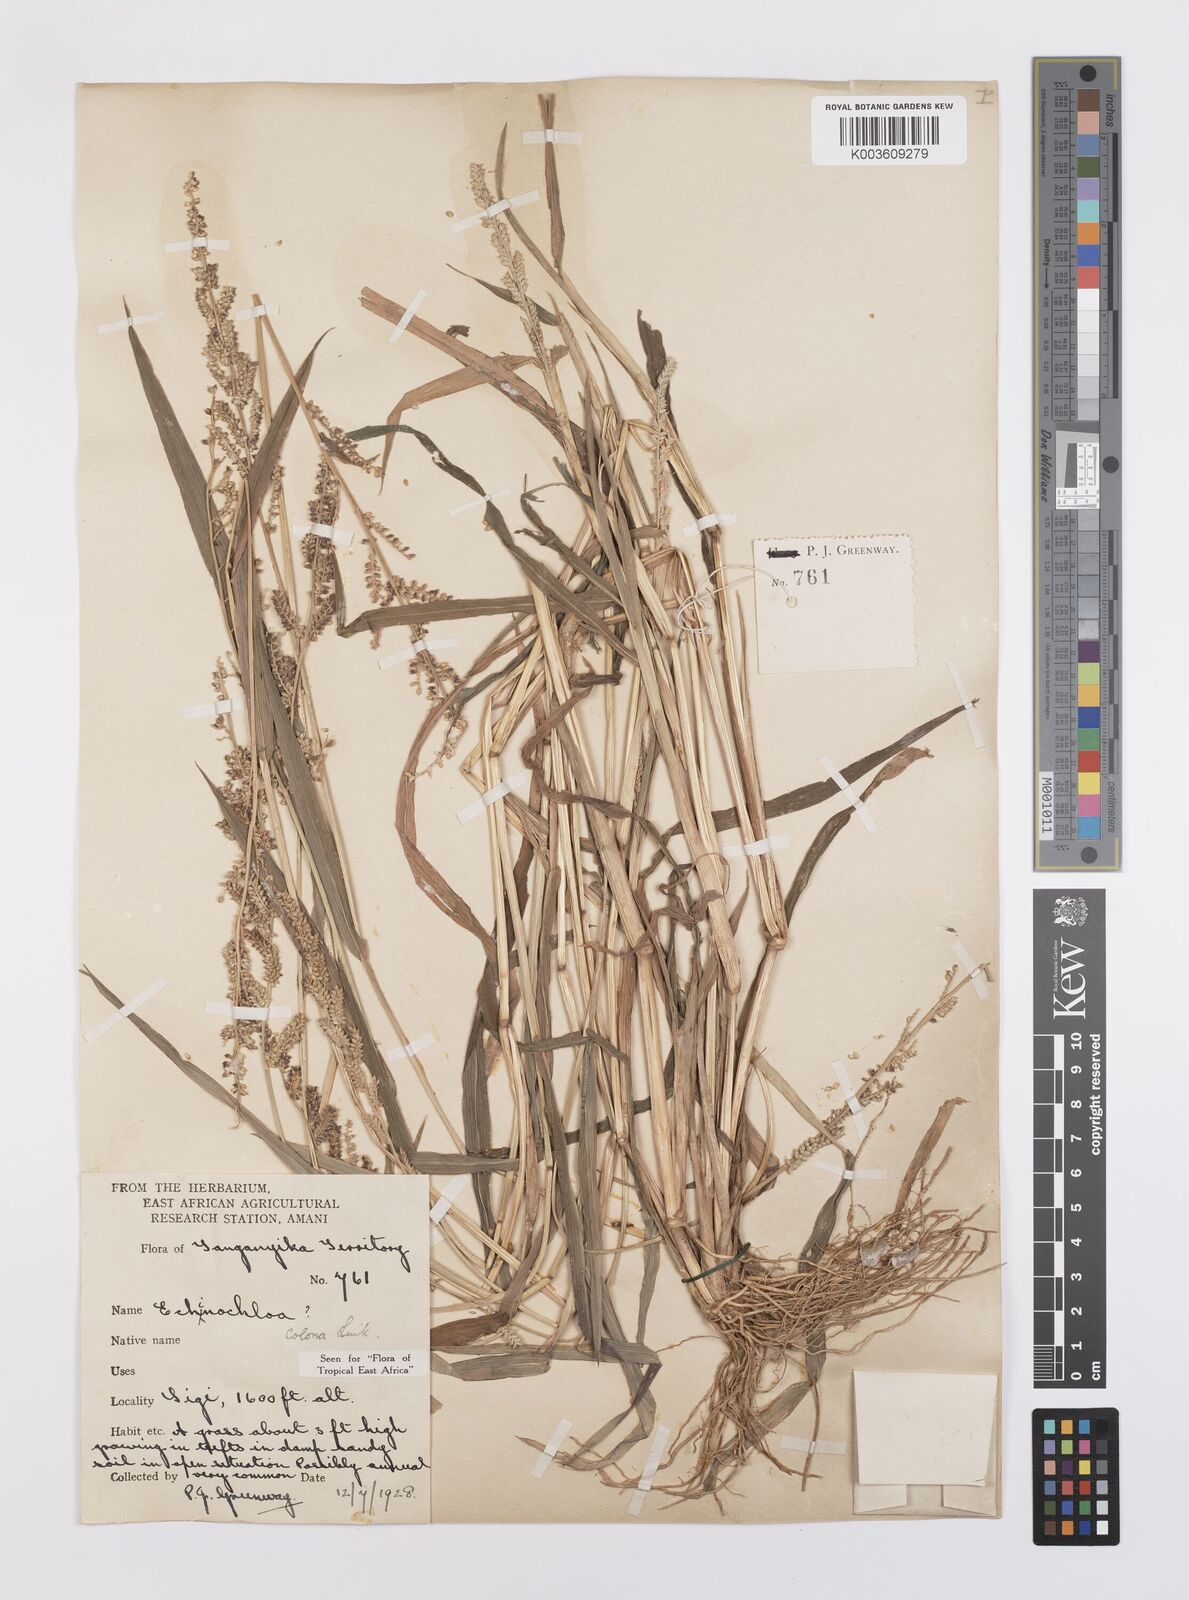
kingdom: Plantae
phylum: Tracheophyta
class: Liliopsida
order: Poales
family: Poaceae
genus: Echinochloa
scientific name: Echinochloa colonum
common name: Jungle rice
